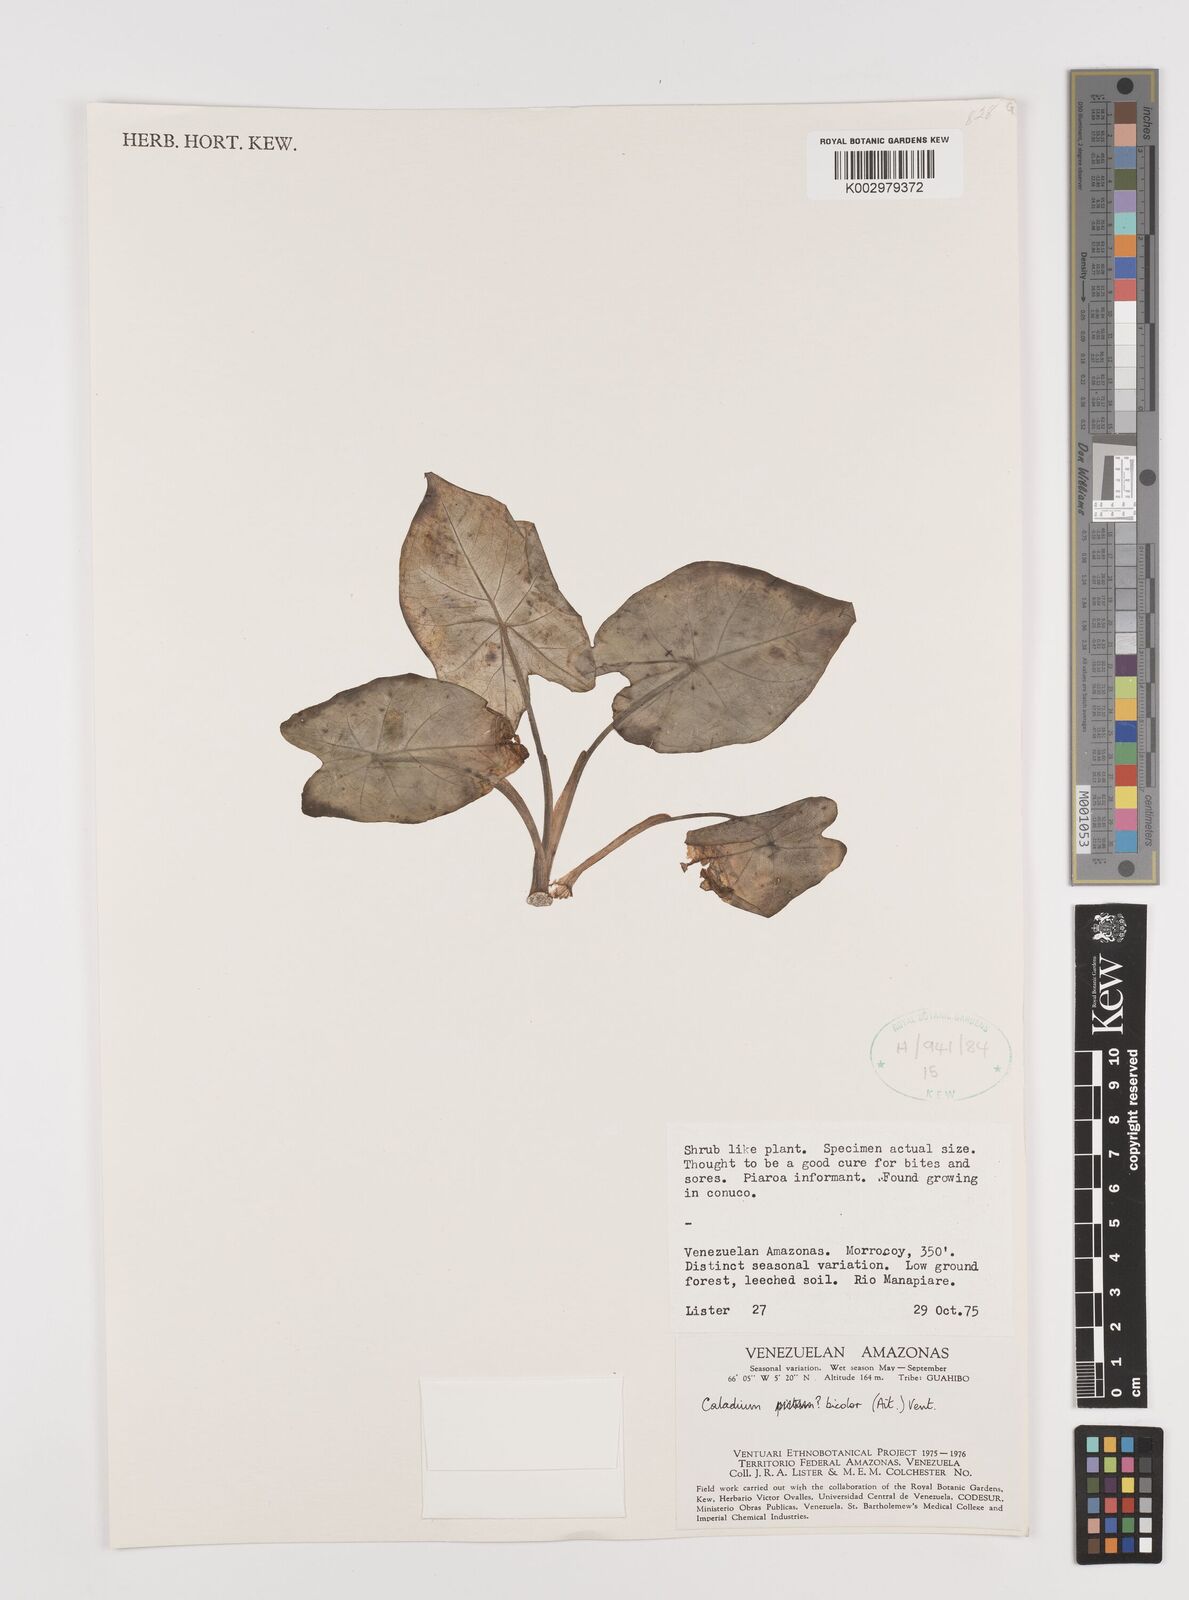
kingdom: Plantae
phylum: Tracheophyta
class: Liliopsida
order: Alismatales
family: Araceae
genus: Caladium
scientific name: Caladium bicolor
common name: Artist's pallet
